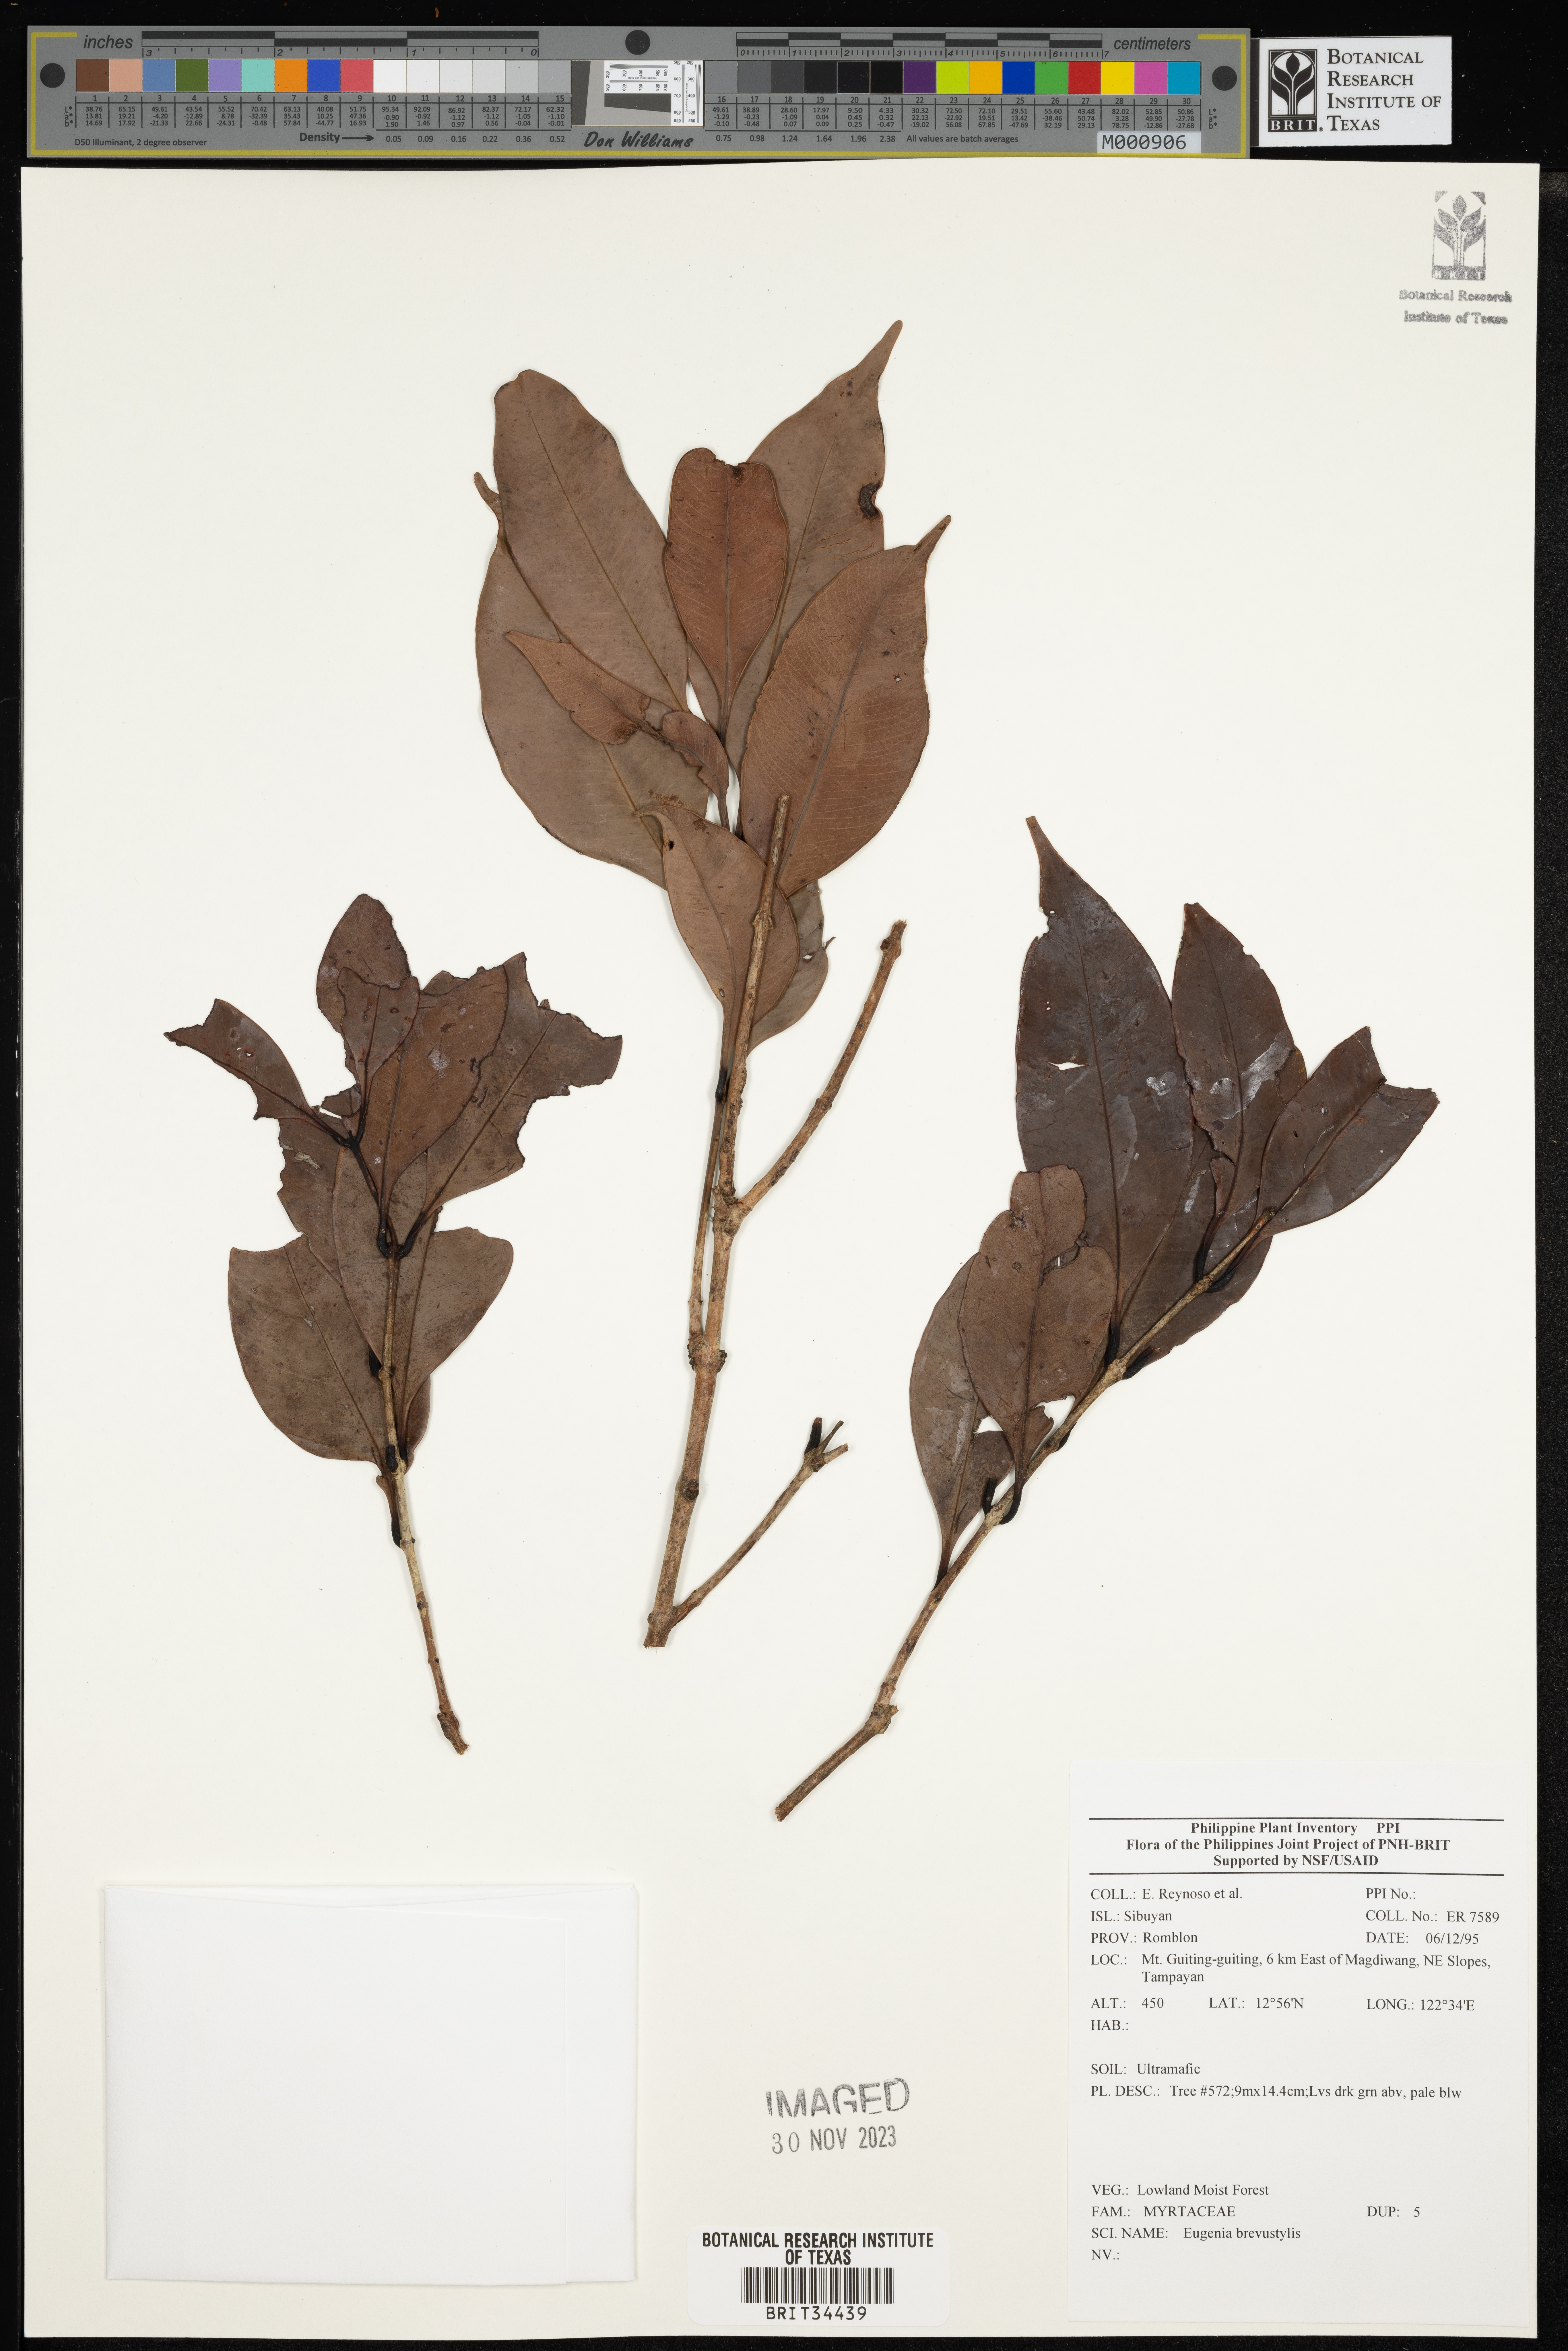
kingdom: Plantae
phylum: Tracheophyta
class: Magnoliopsida
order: Myrtales
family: Myrtaceae
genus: Eugenia
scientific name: Eugenia
